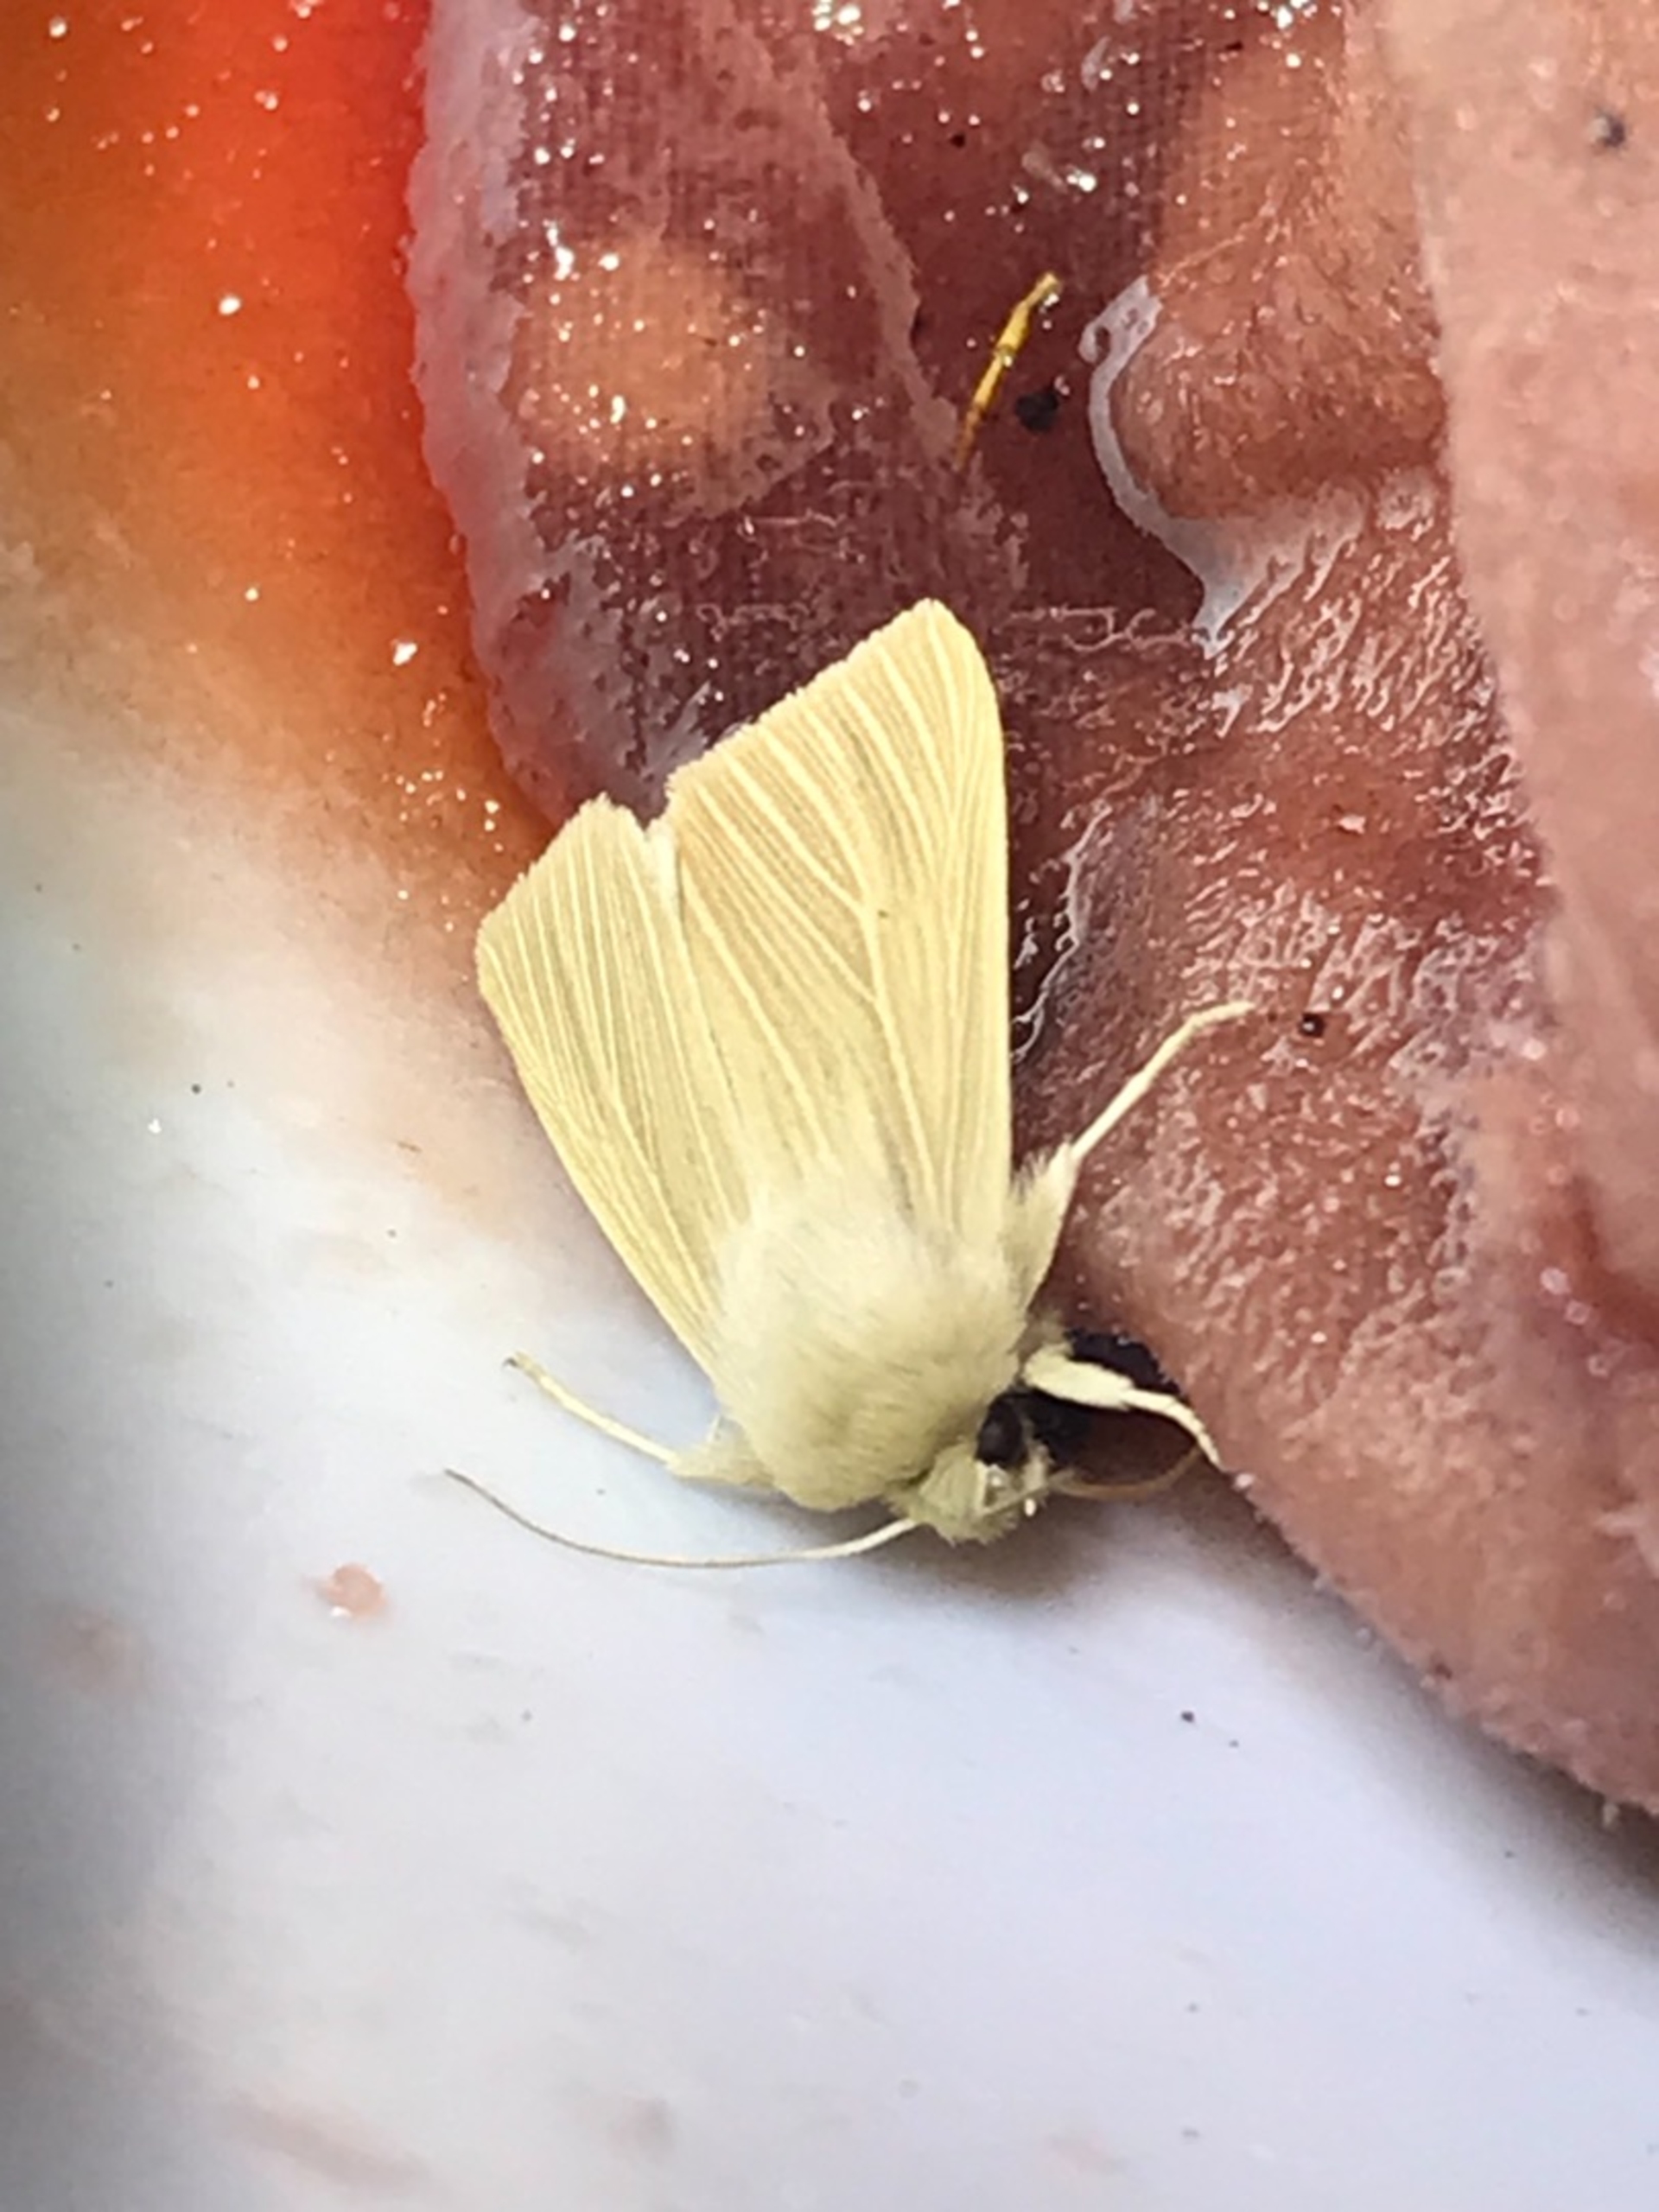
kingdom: Animalia
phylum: Arthropoda
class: Insecta
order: Lepidoptera
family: Noctuidae
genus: Mythimna
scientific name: Mythimna pallens
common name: Halmugle
